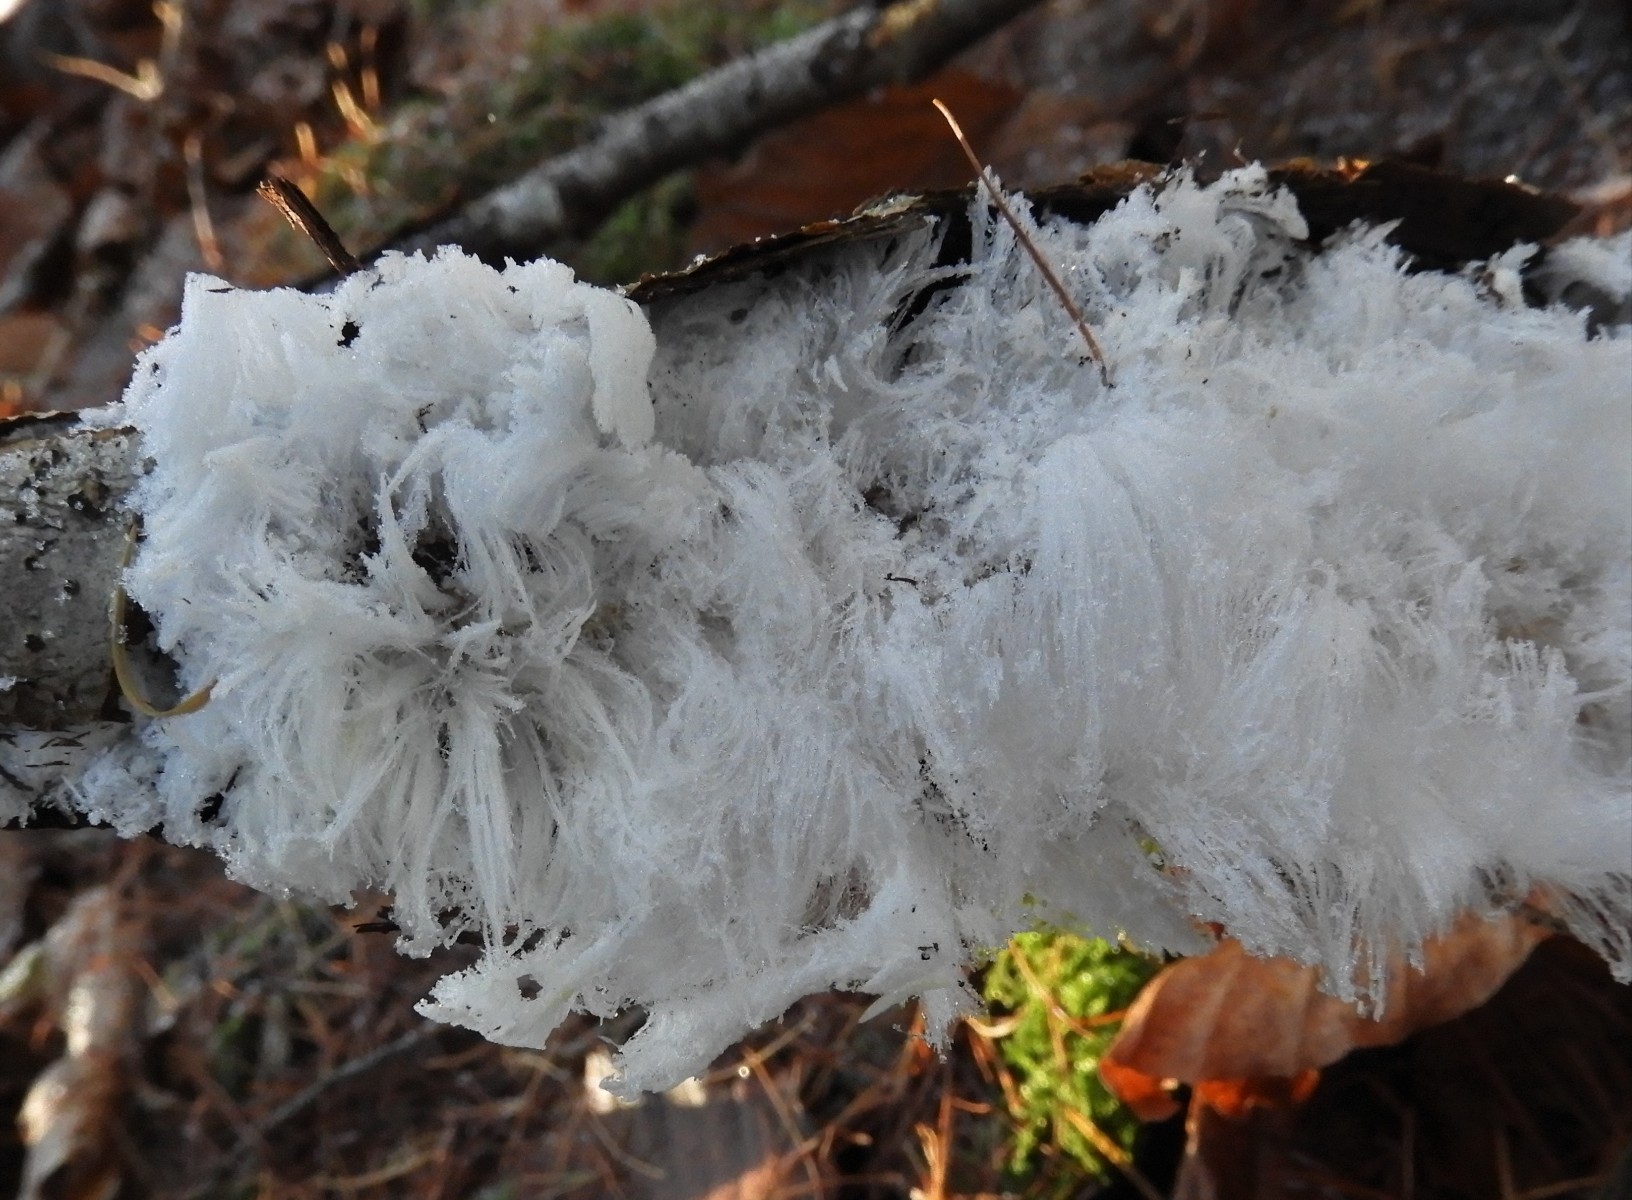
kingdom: Fungi
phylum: Basidiomycota
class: Tremellomycetes
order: Tremellales
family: Exidiaceae
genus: Exidiopsis
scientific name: Exidiopsis effusa
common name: smuk bævrehinde
